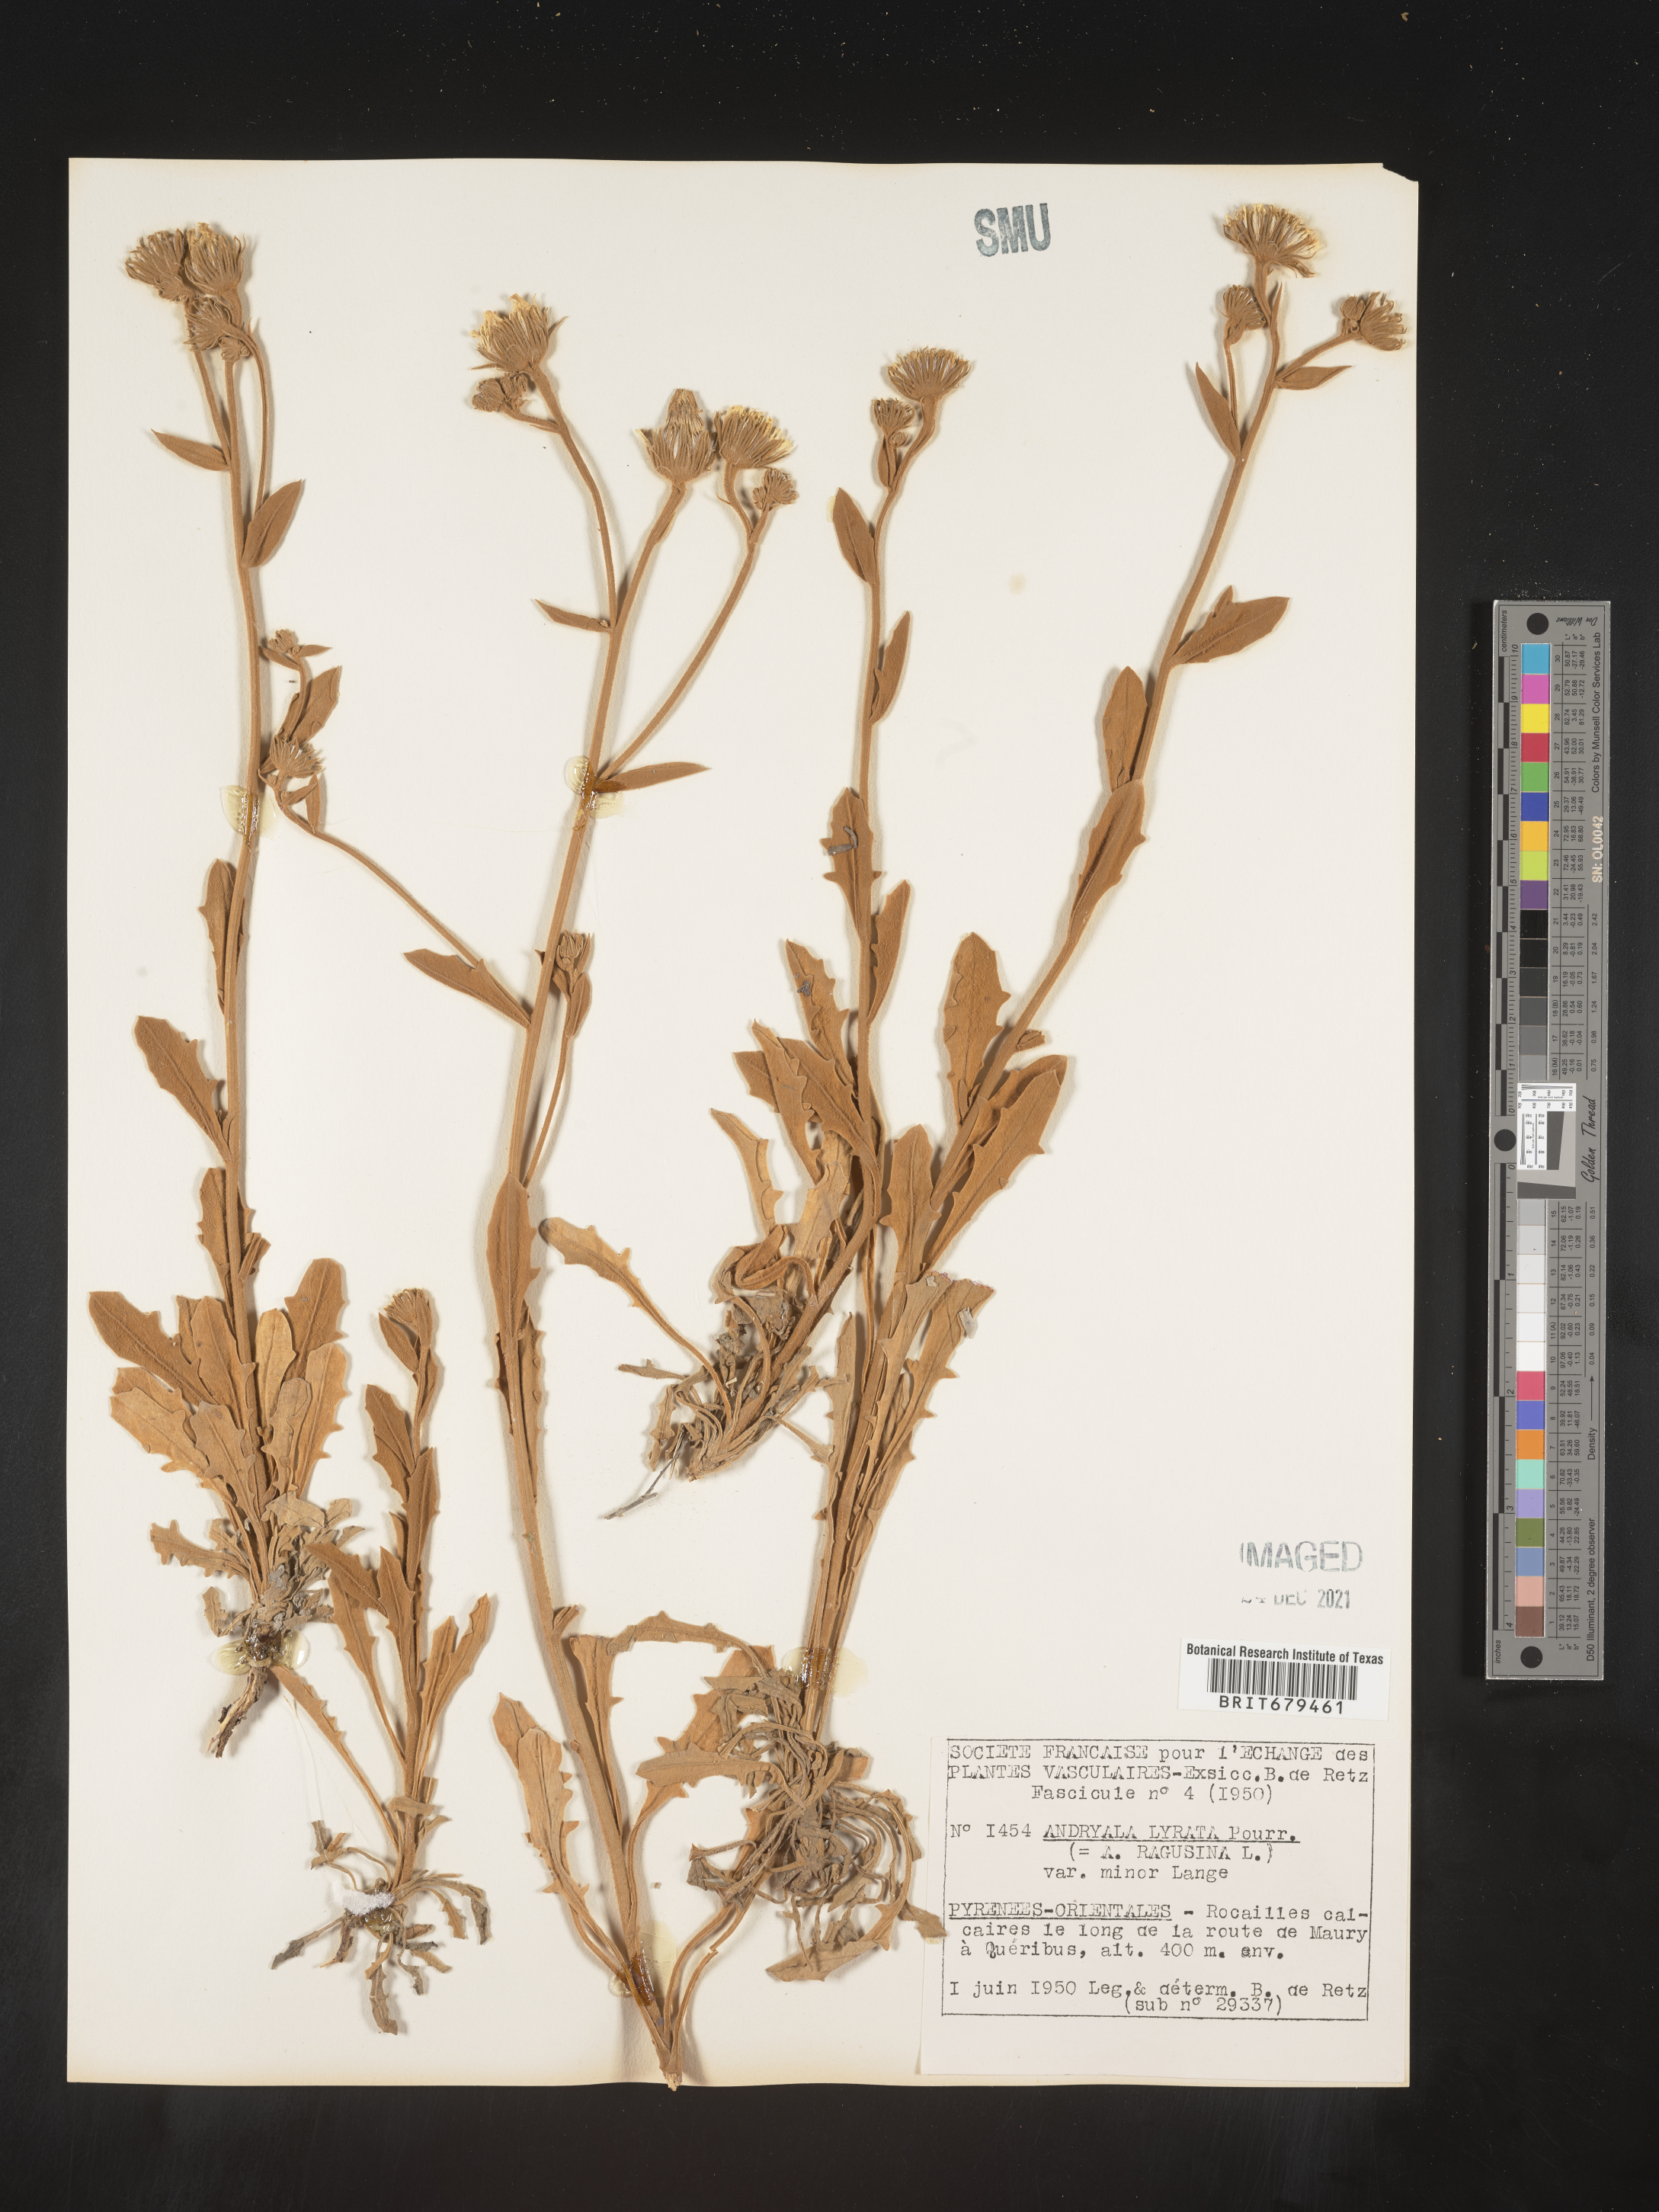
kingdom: Plantae
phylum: Tracheophyta
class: Magnoliopsida
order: Asterales
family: Asteraceae
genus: Andryala
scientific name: Andryala
